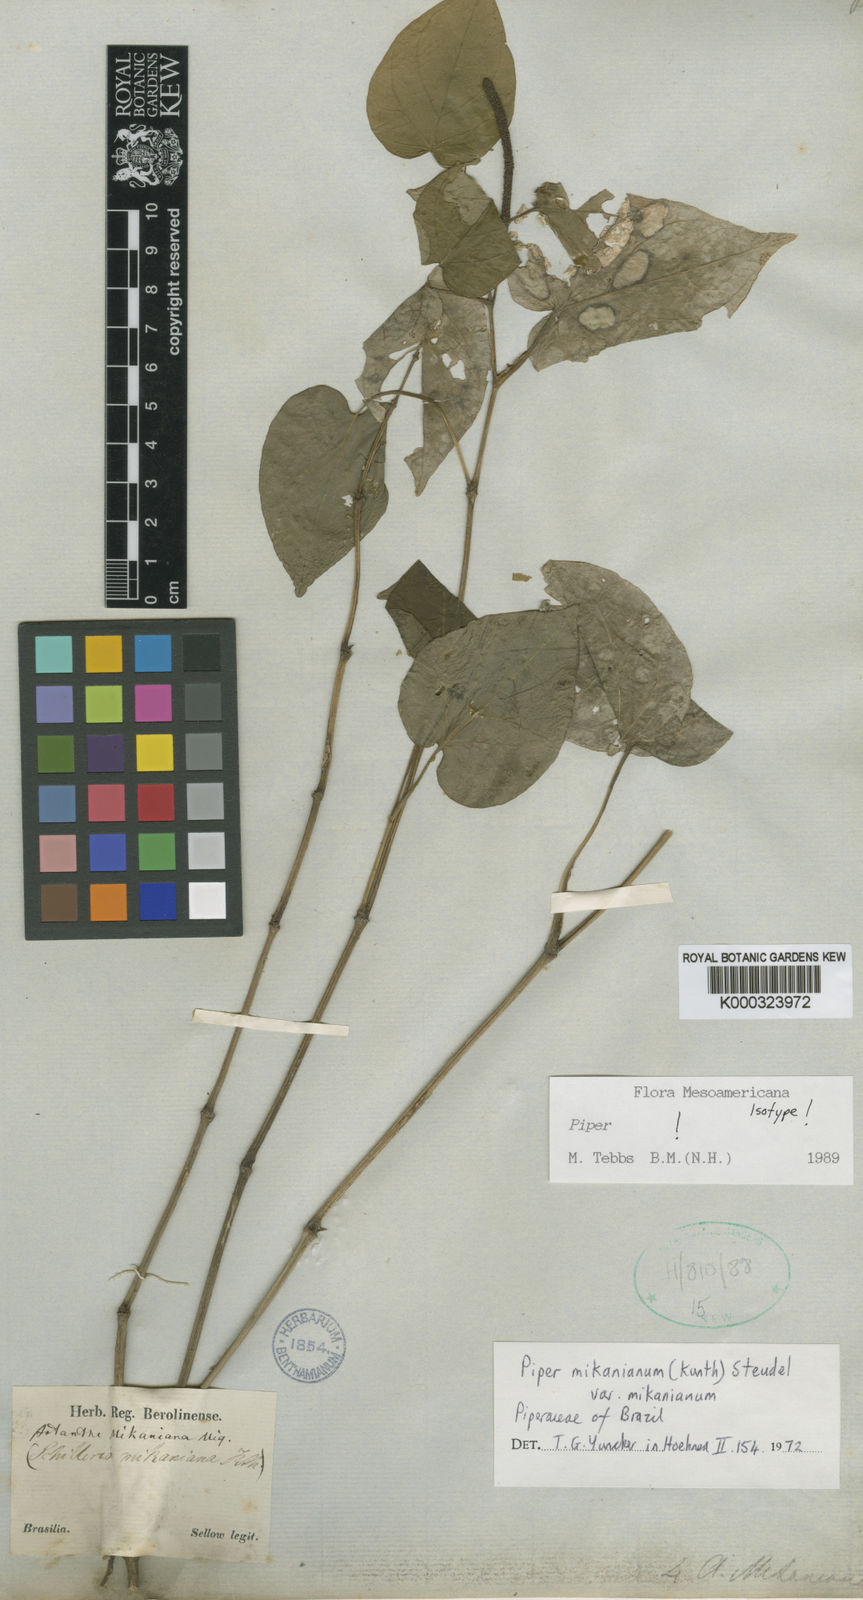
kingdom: Plantae
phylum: Tracheophyta
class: Magnoliopsida
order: Piperales
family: Piperaceae
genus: Piper
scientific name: Piper mikanianum
